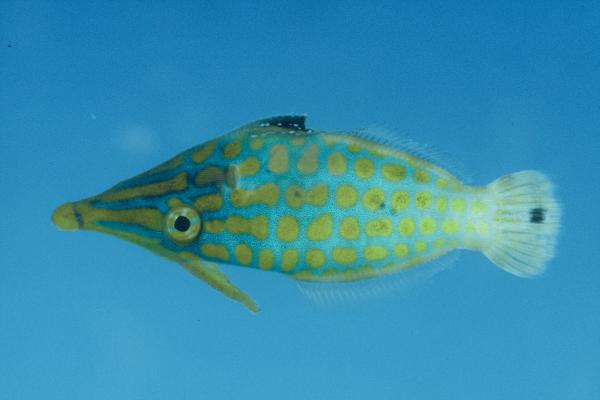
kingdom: Animalia
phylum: Chordata
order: Tetraodontiformes
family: Monacanthidae
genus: Oxymonacanthus
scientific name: Oxymonacanthus longirostris
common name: Beaked leatherjacket
